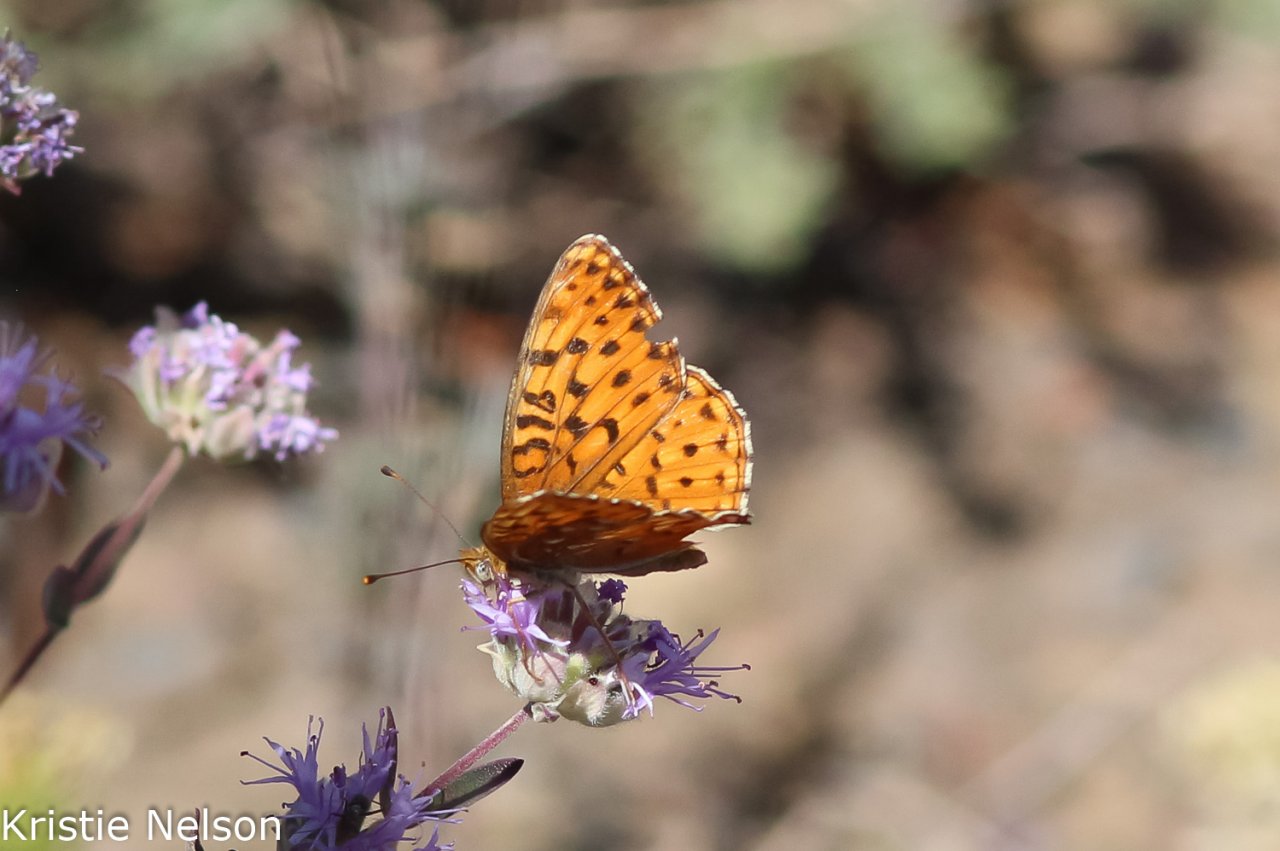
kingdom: Animalia
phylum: Arthropoda
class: Insecta
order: Lepidoptera
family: Nymphalidae
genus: Speyeria
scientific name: Speyeria egleis
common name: Great Basin Fritillary
